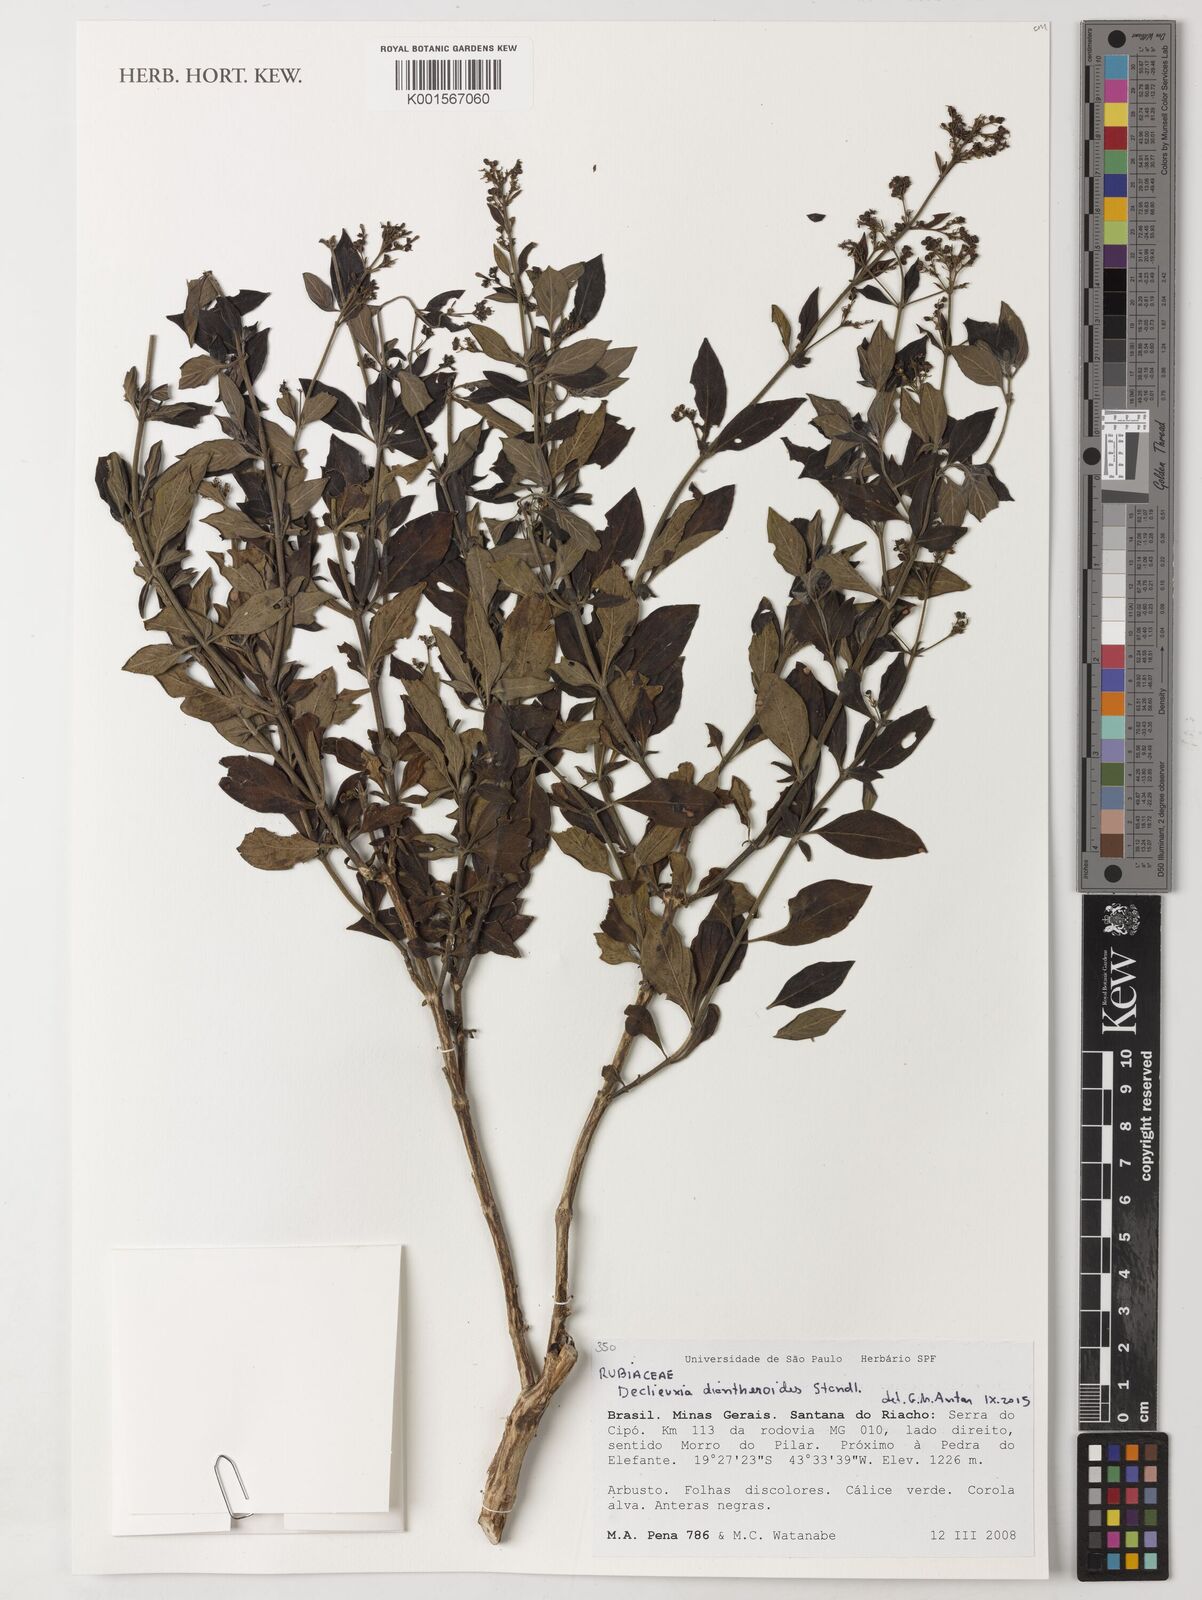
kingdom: Plantae
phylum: Tracheophyta
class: Magnoliopsida
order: Gentianales
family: Rubiaceae
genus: Declieuxia
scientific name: Declieuxia diantheroides
